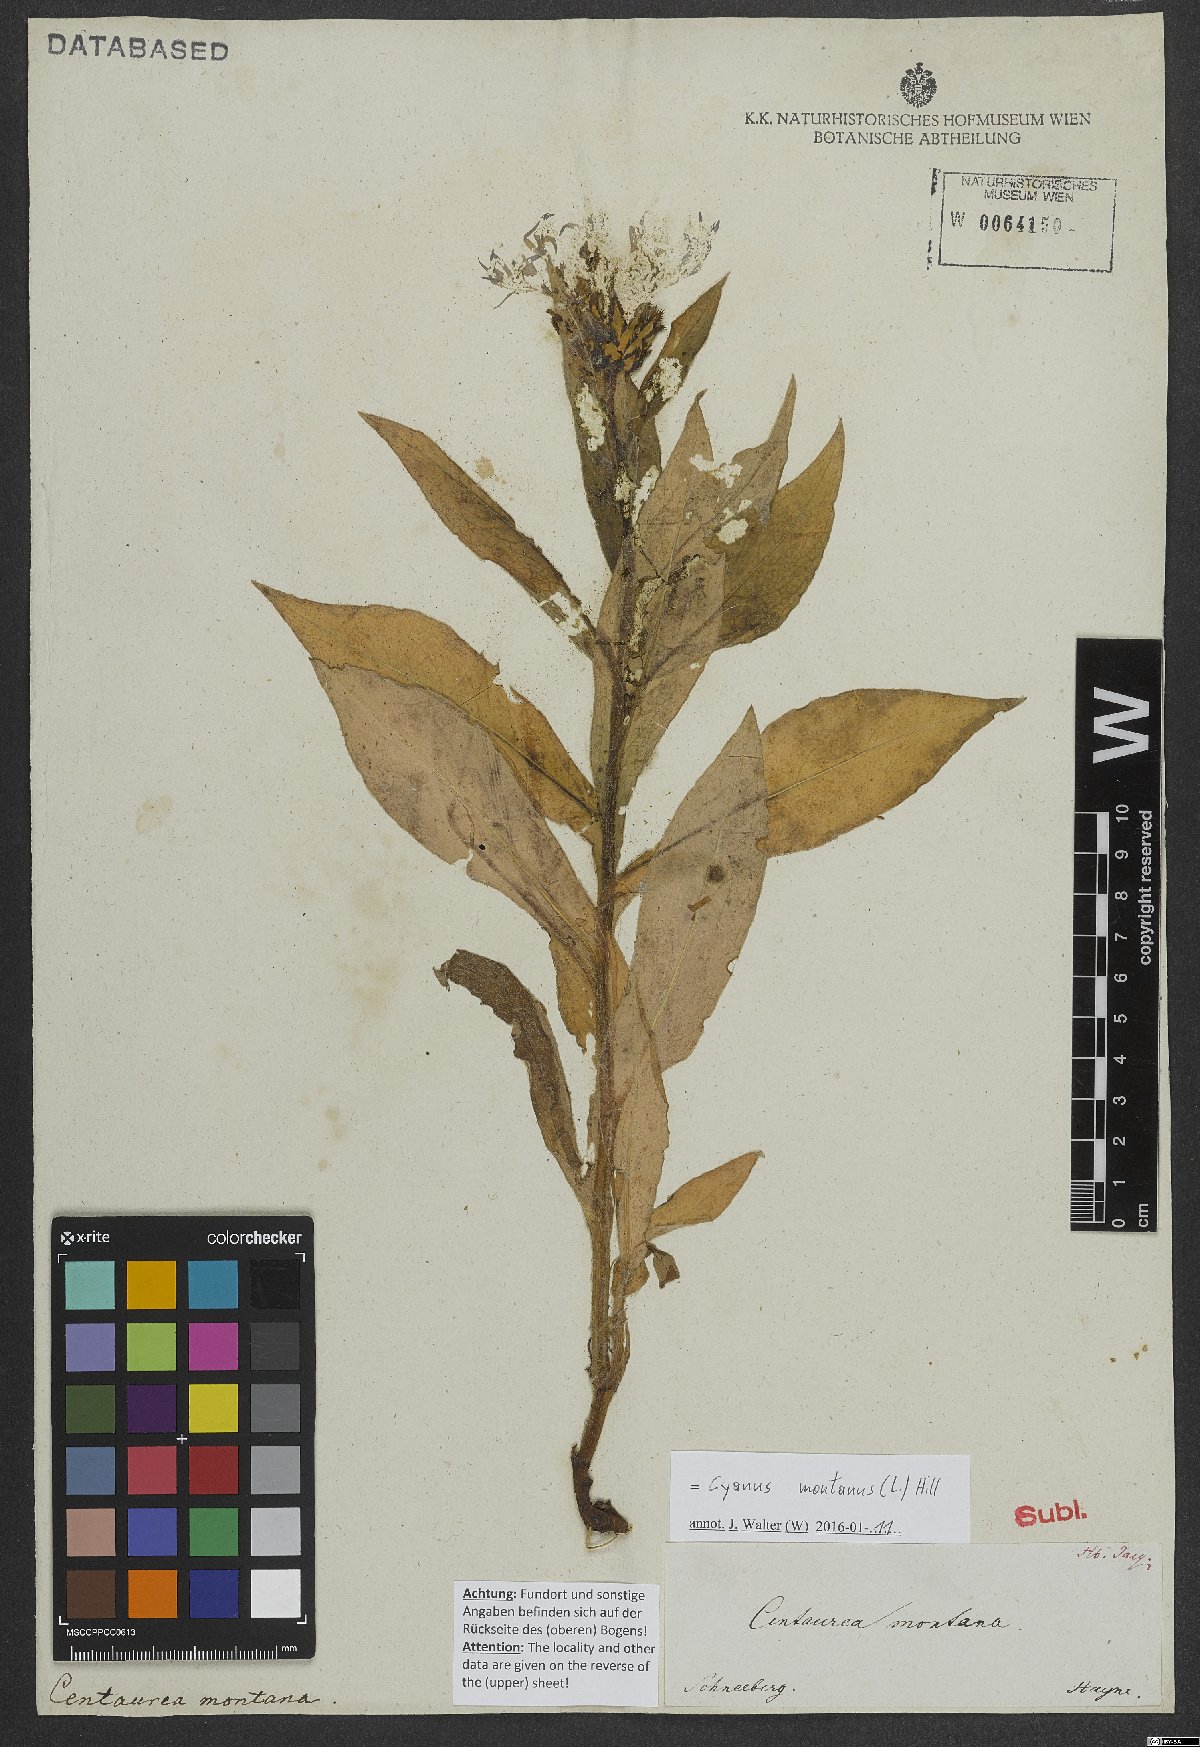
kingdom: Plantae
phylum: Tracheophyta
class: Magnoliopsida
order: Asterales
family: Asteraceae
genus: Centaurea
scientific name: Centaurea montana
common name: Perennial cornflower
